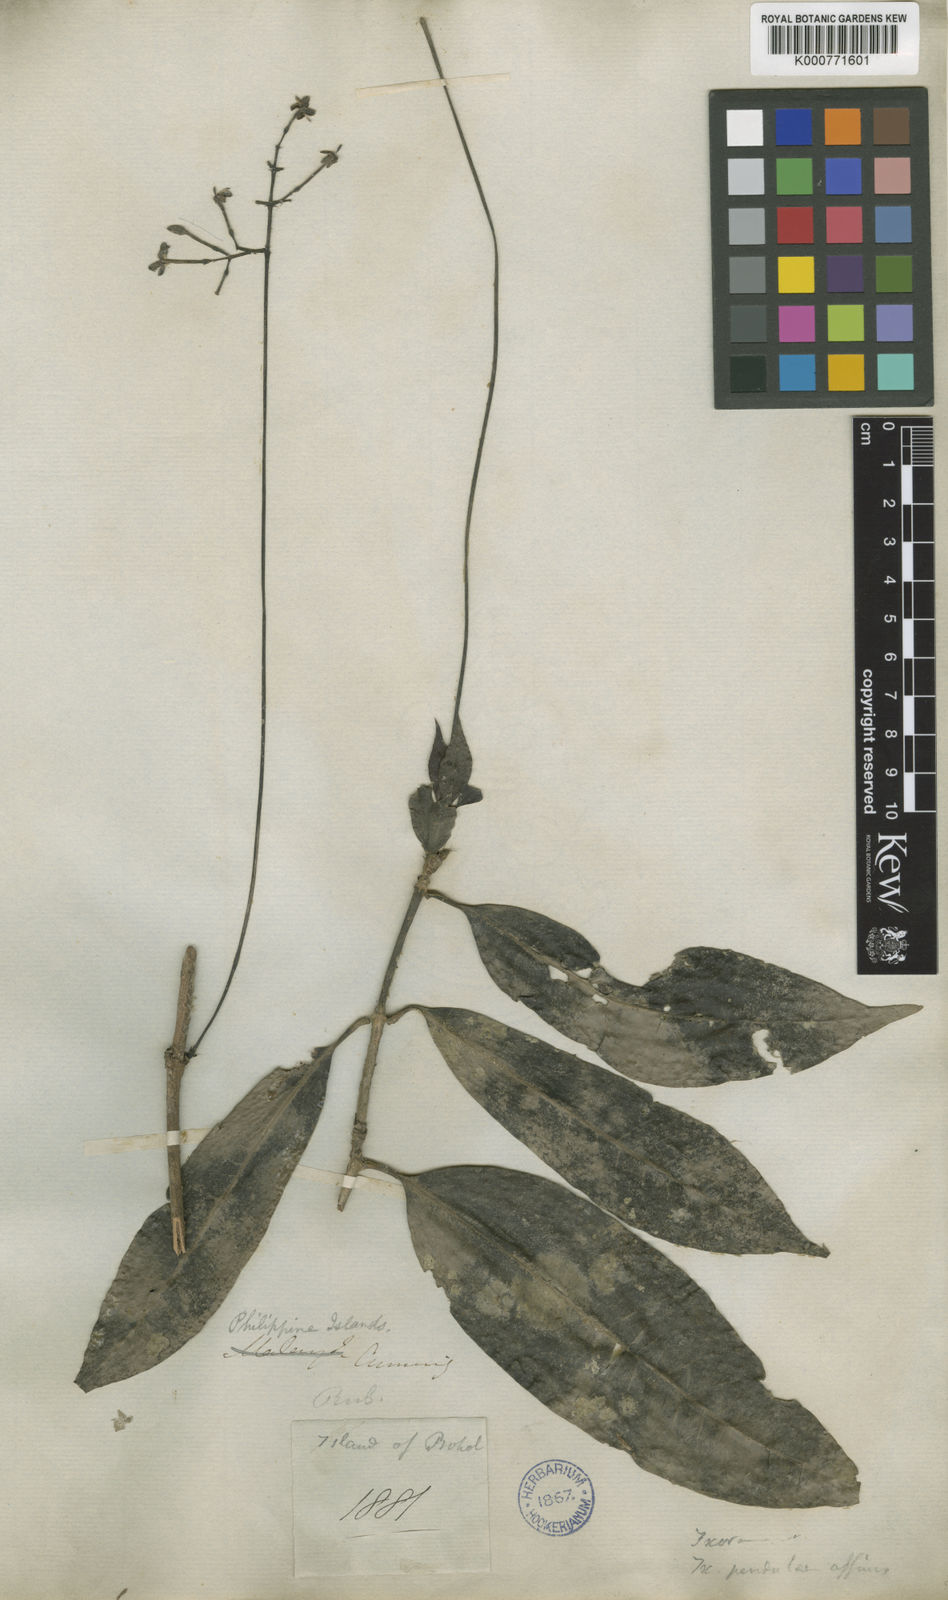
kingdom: Plantae
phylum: Tracheophyta
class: Magnoliopsida
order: Gentianales
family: Rubiaceae
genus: Ixora
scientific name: Ixora
